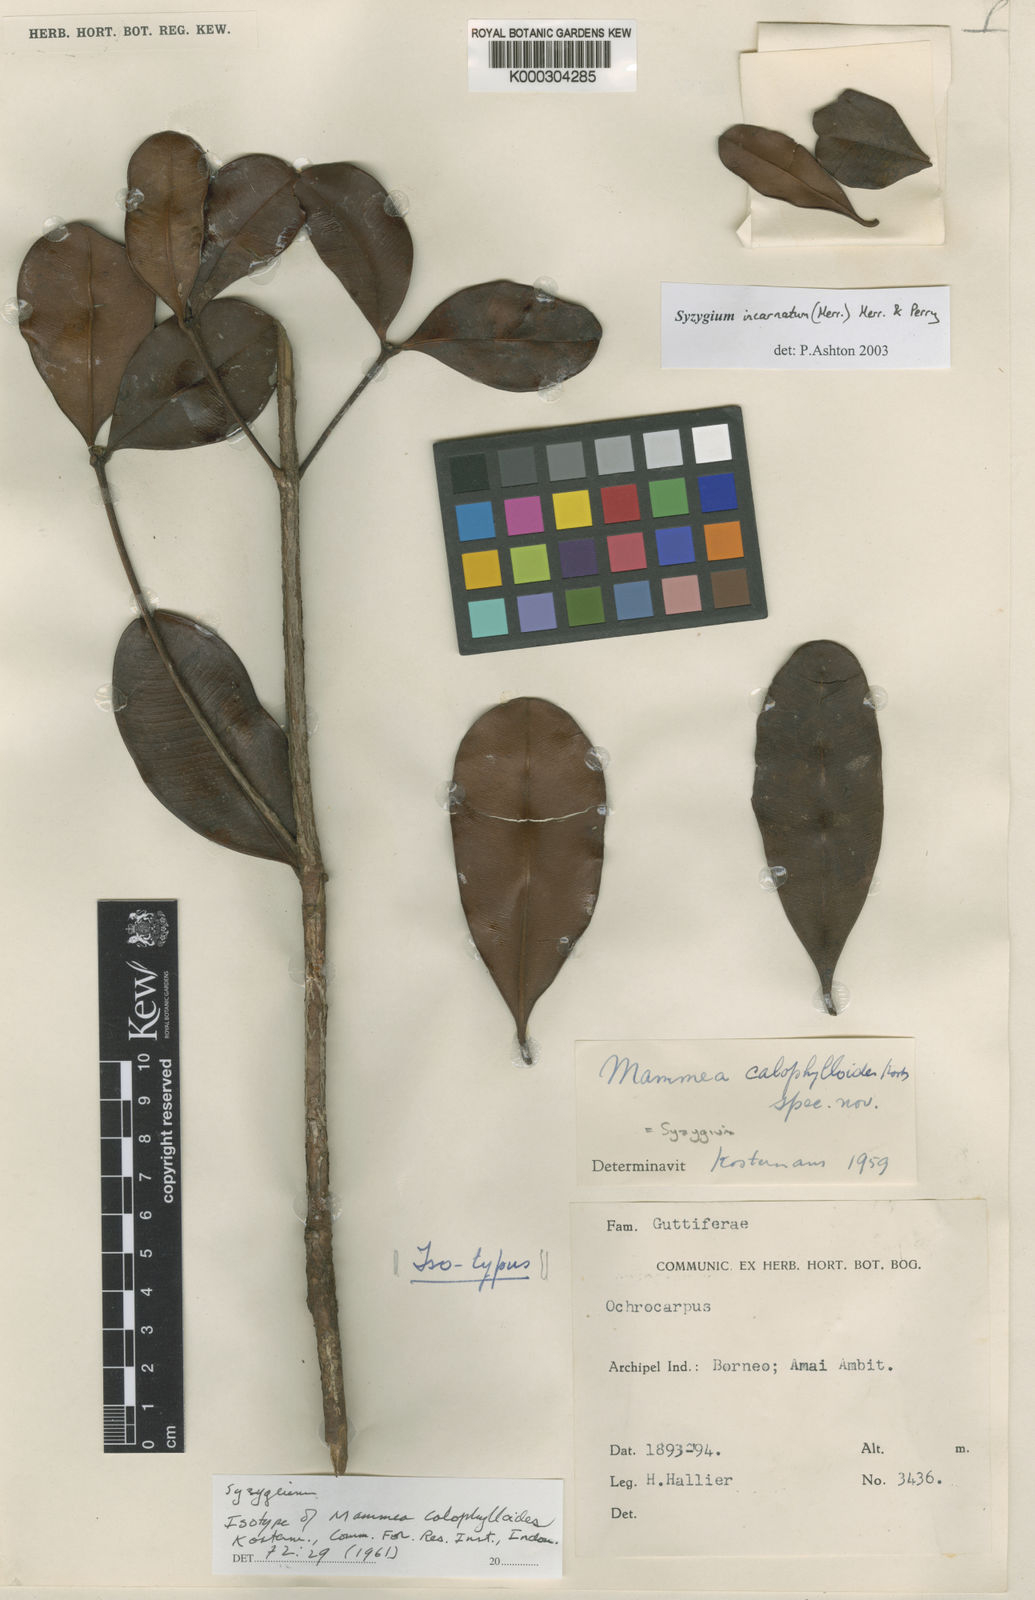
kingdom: Plantae
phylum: Tracheophyta
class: Magnoliopsida
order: Myrtales
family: Myrtaceae
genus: Syzygium
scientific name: Syzygium incarnatum
